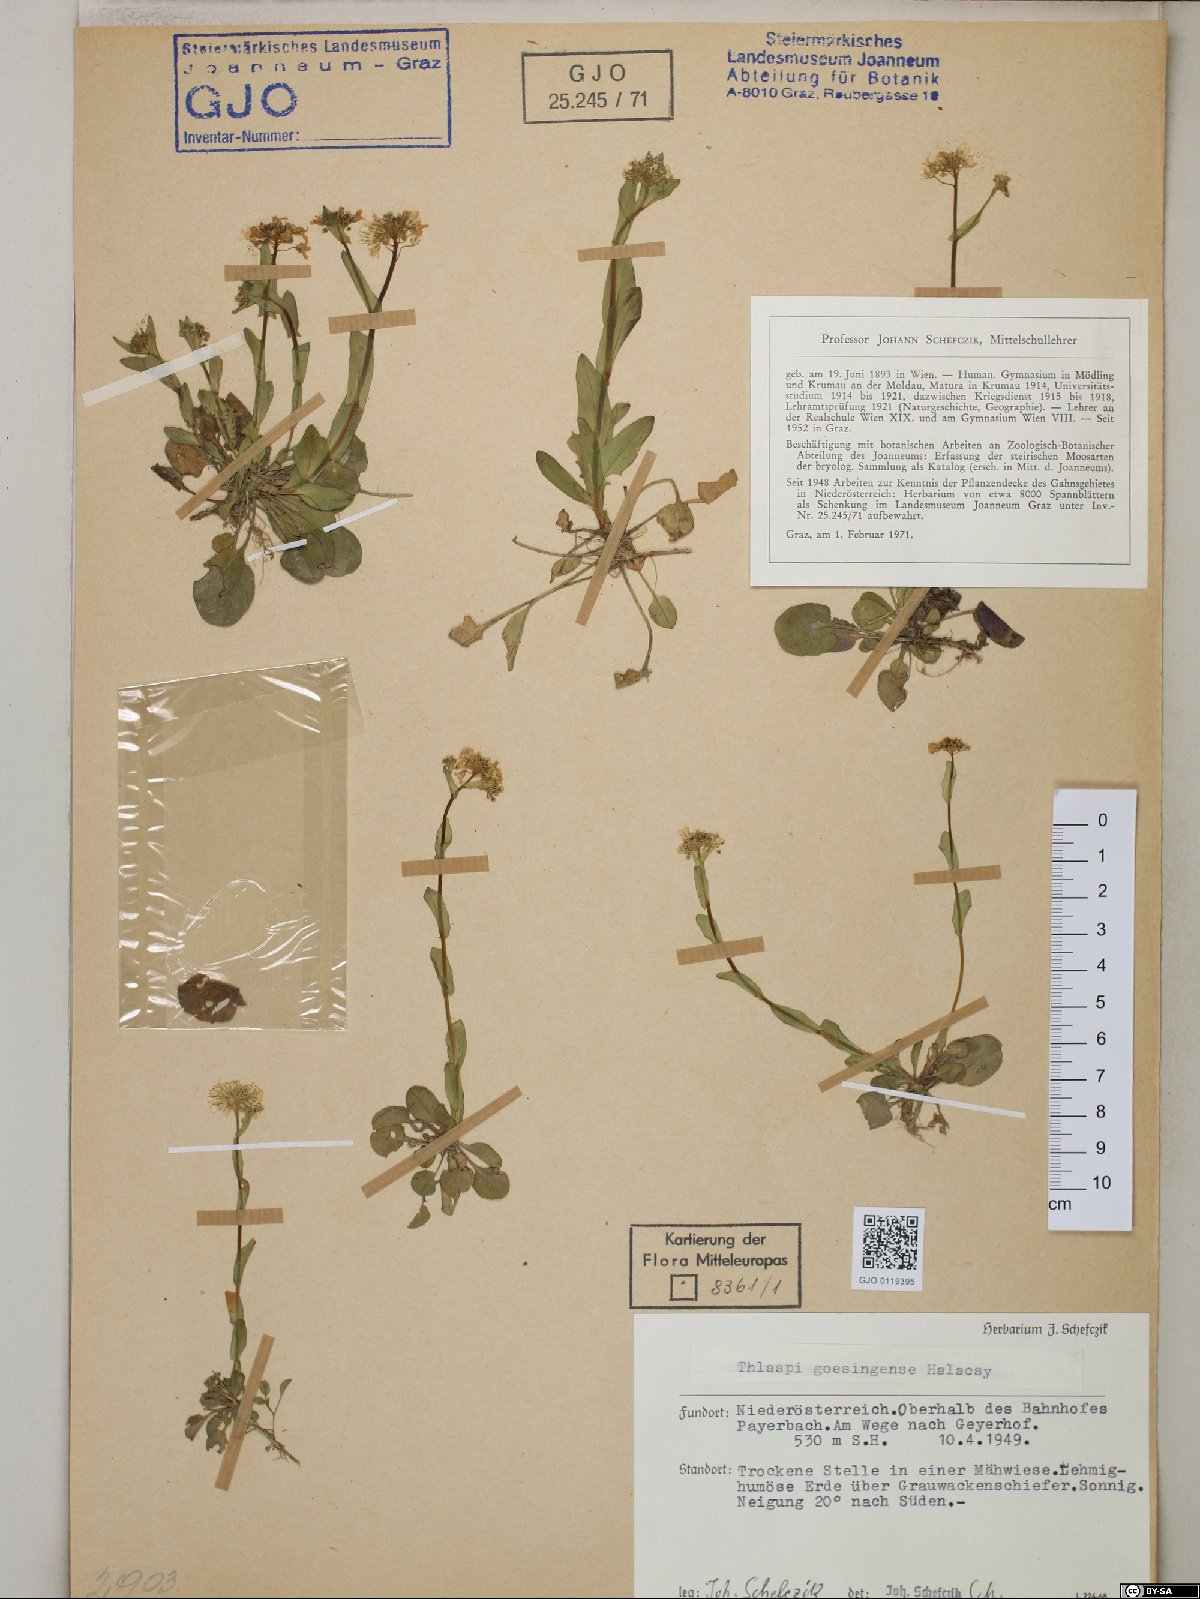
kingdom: Plantae
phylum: Tracheophyta
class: Magnoliopsida
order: Brassicales
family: Brassicaceae
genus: Noccaea
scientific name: Noccaea goesingensis
